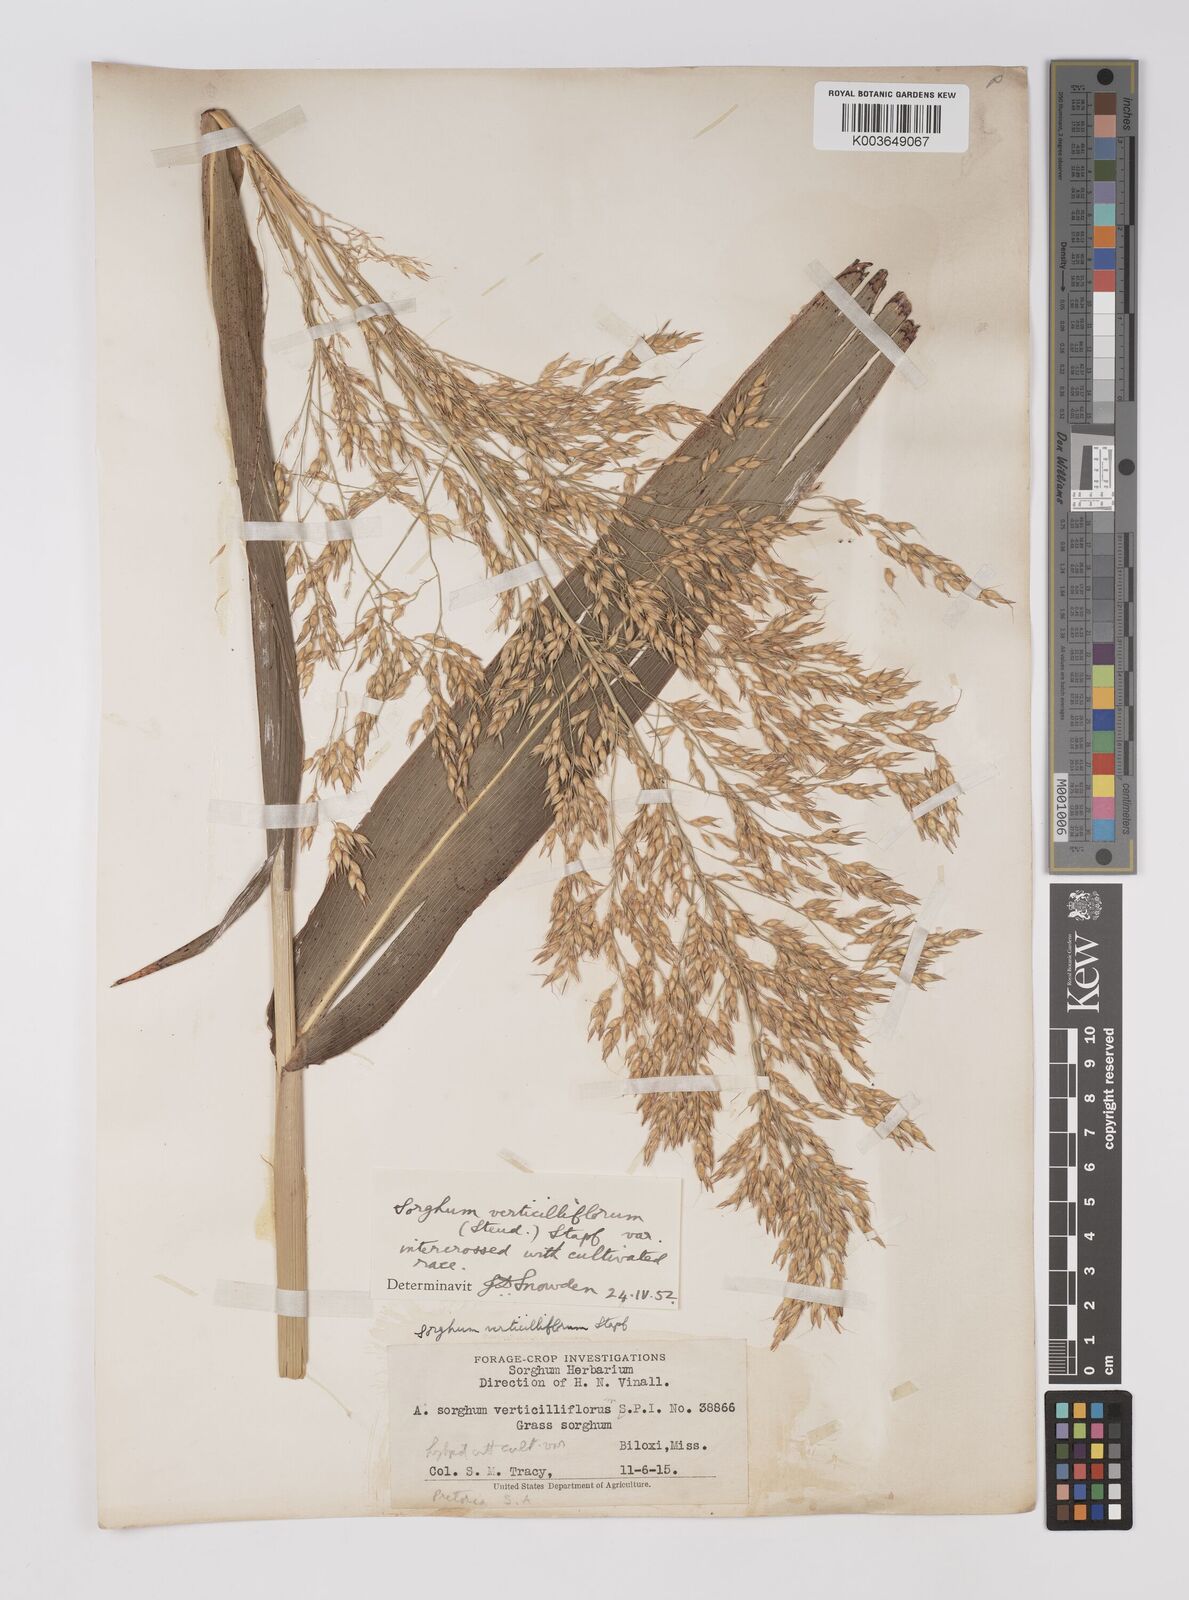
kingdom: Plantae
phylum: Tracheophyta
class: Liliopsida
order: Poales
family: Poaceae
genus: Sorghum
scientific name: Sorghum drummondii
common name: Sudangrass
